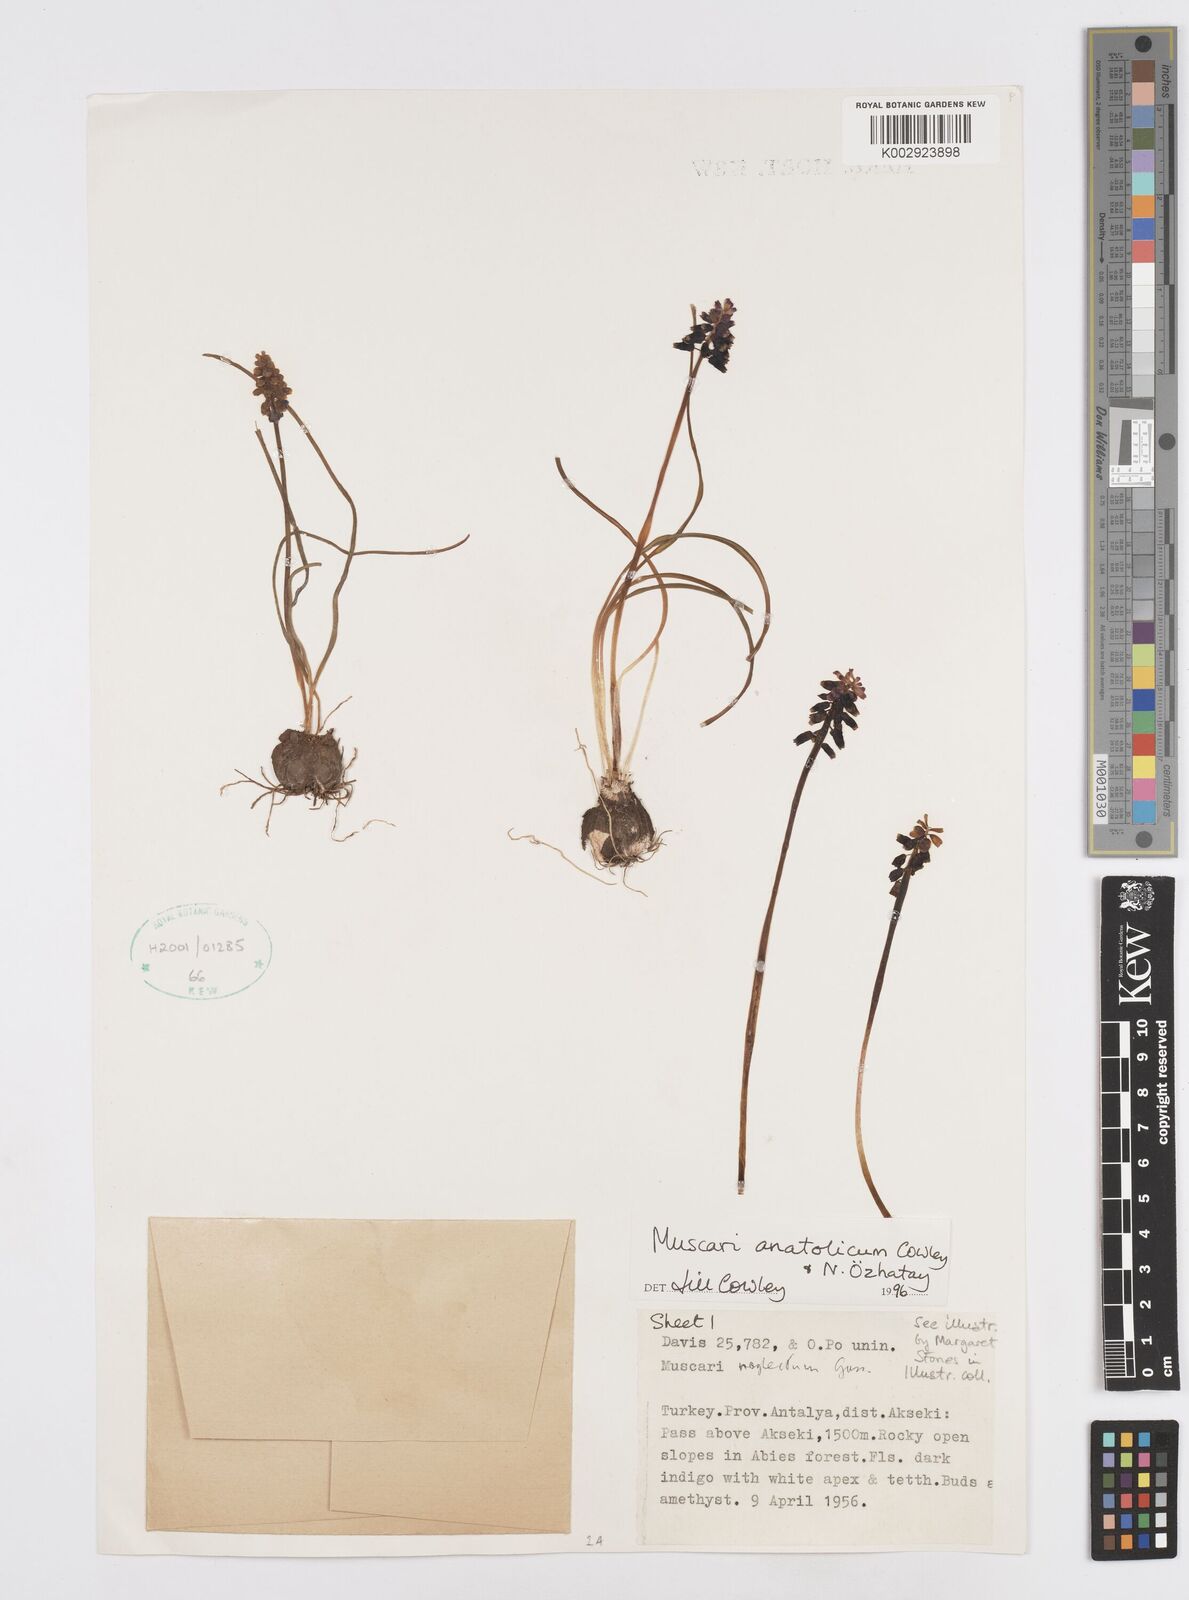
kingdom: Plantae
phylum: Tracheophyta
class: Liliopsida
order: Asparagales
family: Asparagaceae
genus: Muscari
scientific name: Muscari anatolicum
